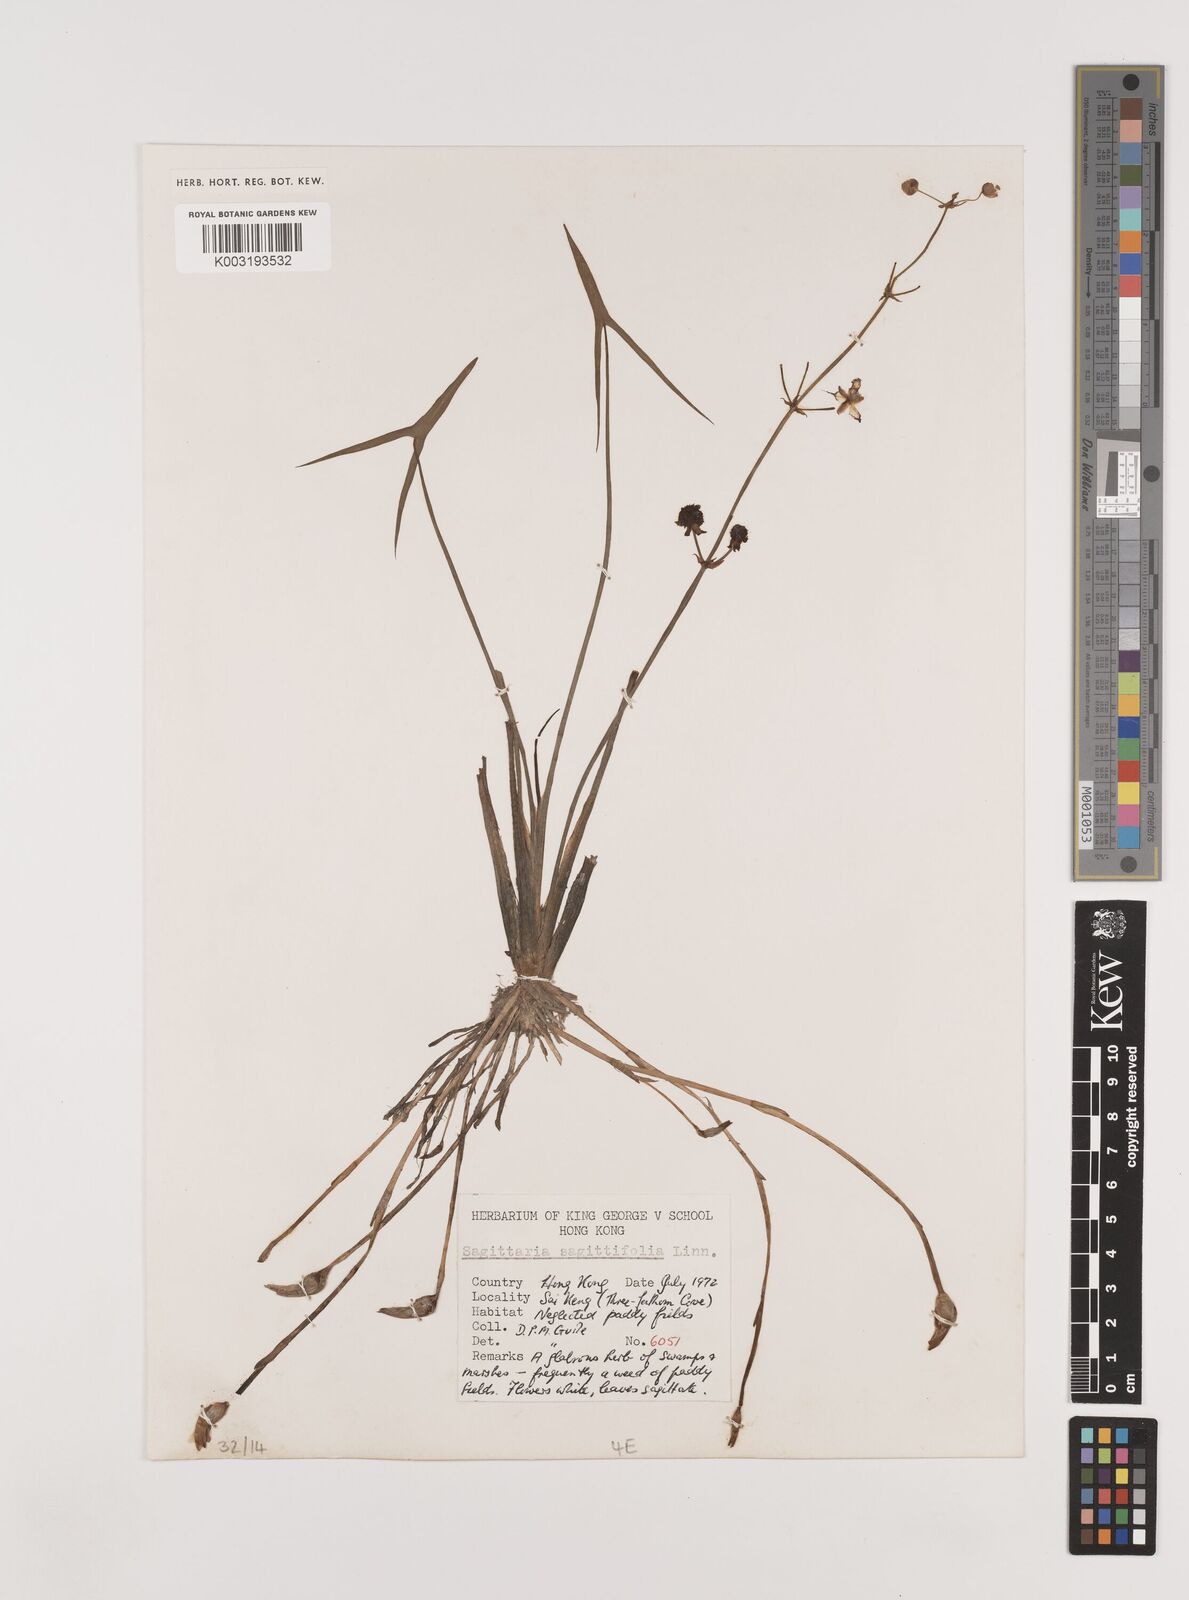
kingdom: Plantae
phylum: Tracheophyta
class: Liliopsida
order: Alismatales
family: Alismataceae
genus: Sagittaria
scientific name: Sagittaria sagittifolia
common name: Arrowhead
